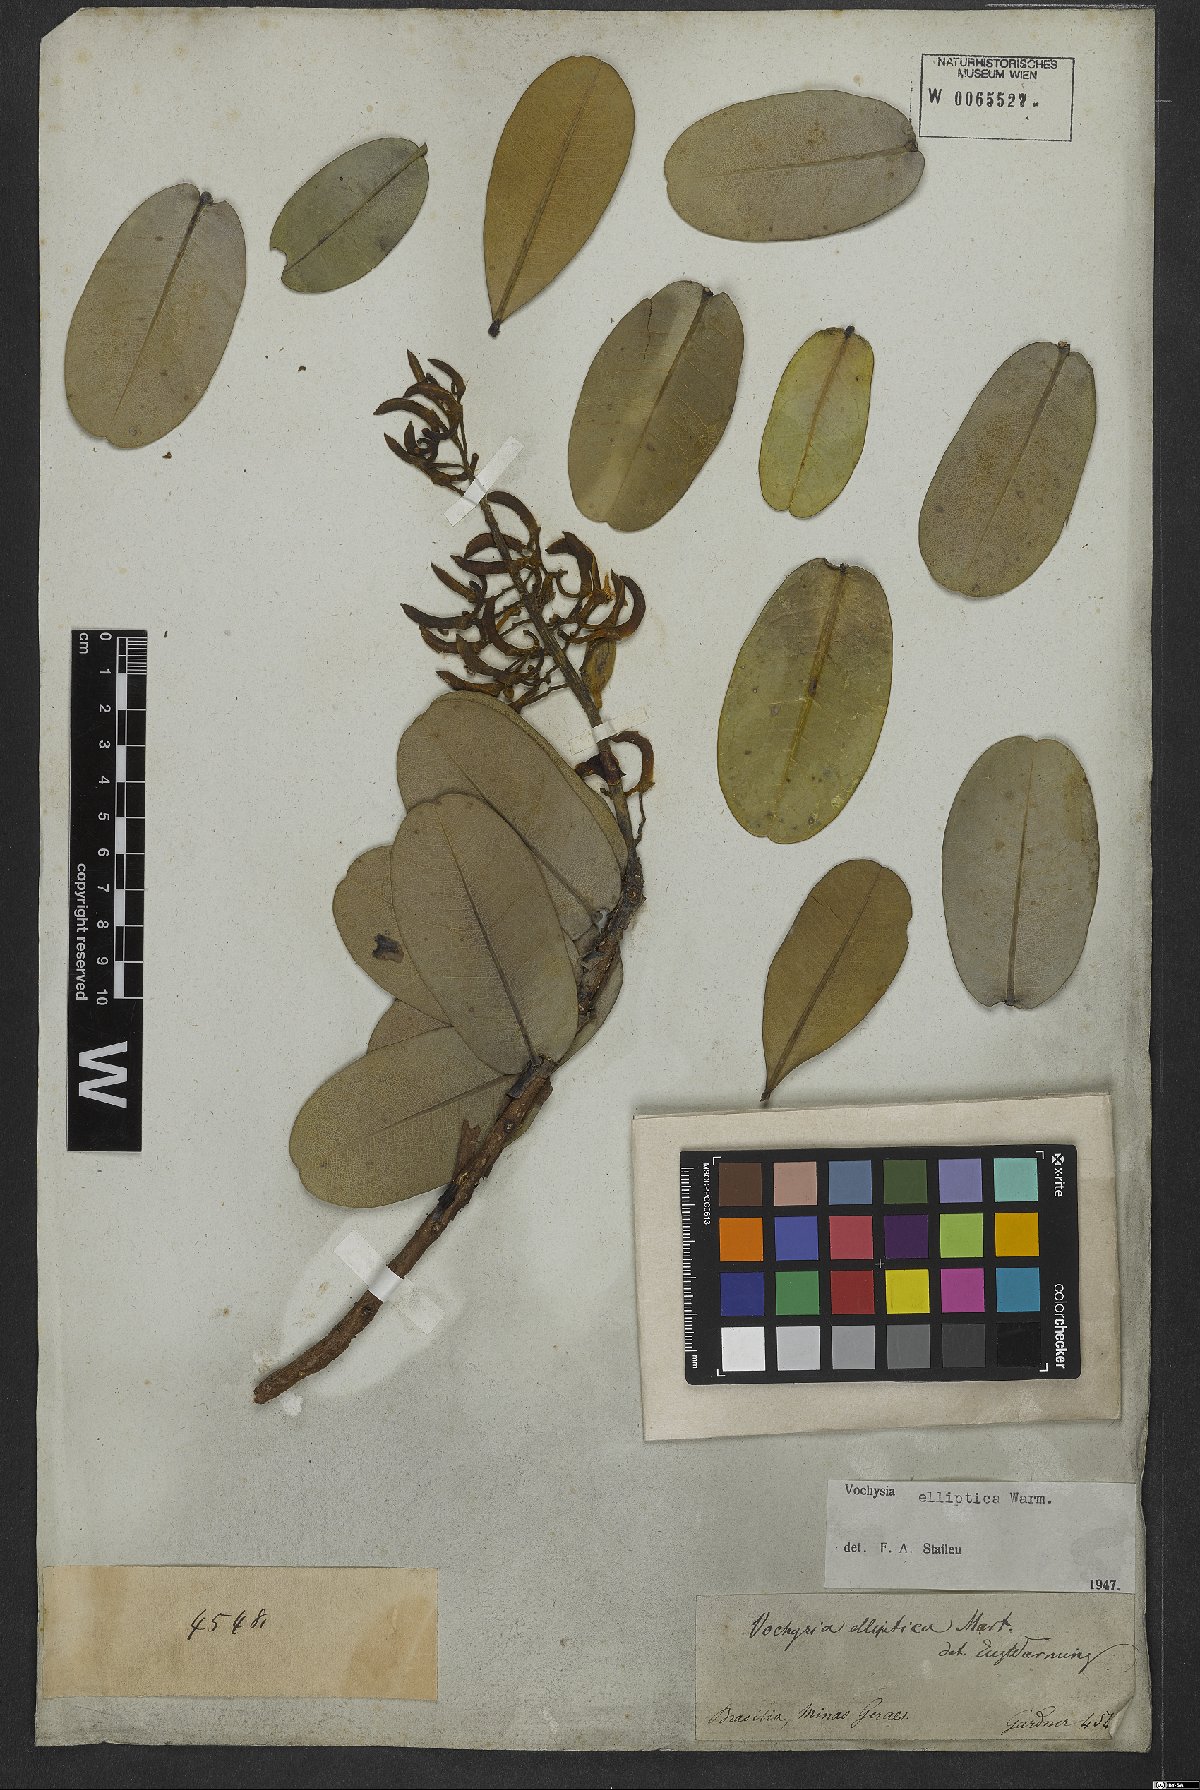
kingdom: Plantae
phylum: Tracheophyta
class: Magnoliopsida
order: Myrtales
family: Vochysiaceae
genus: Vochysia
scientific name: Vochysia elliptica
